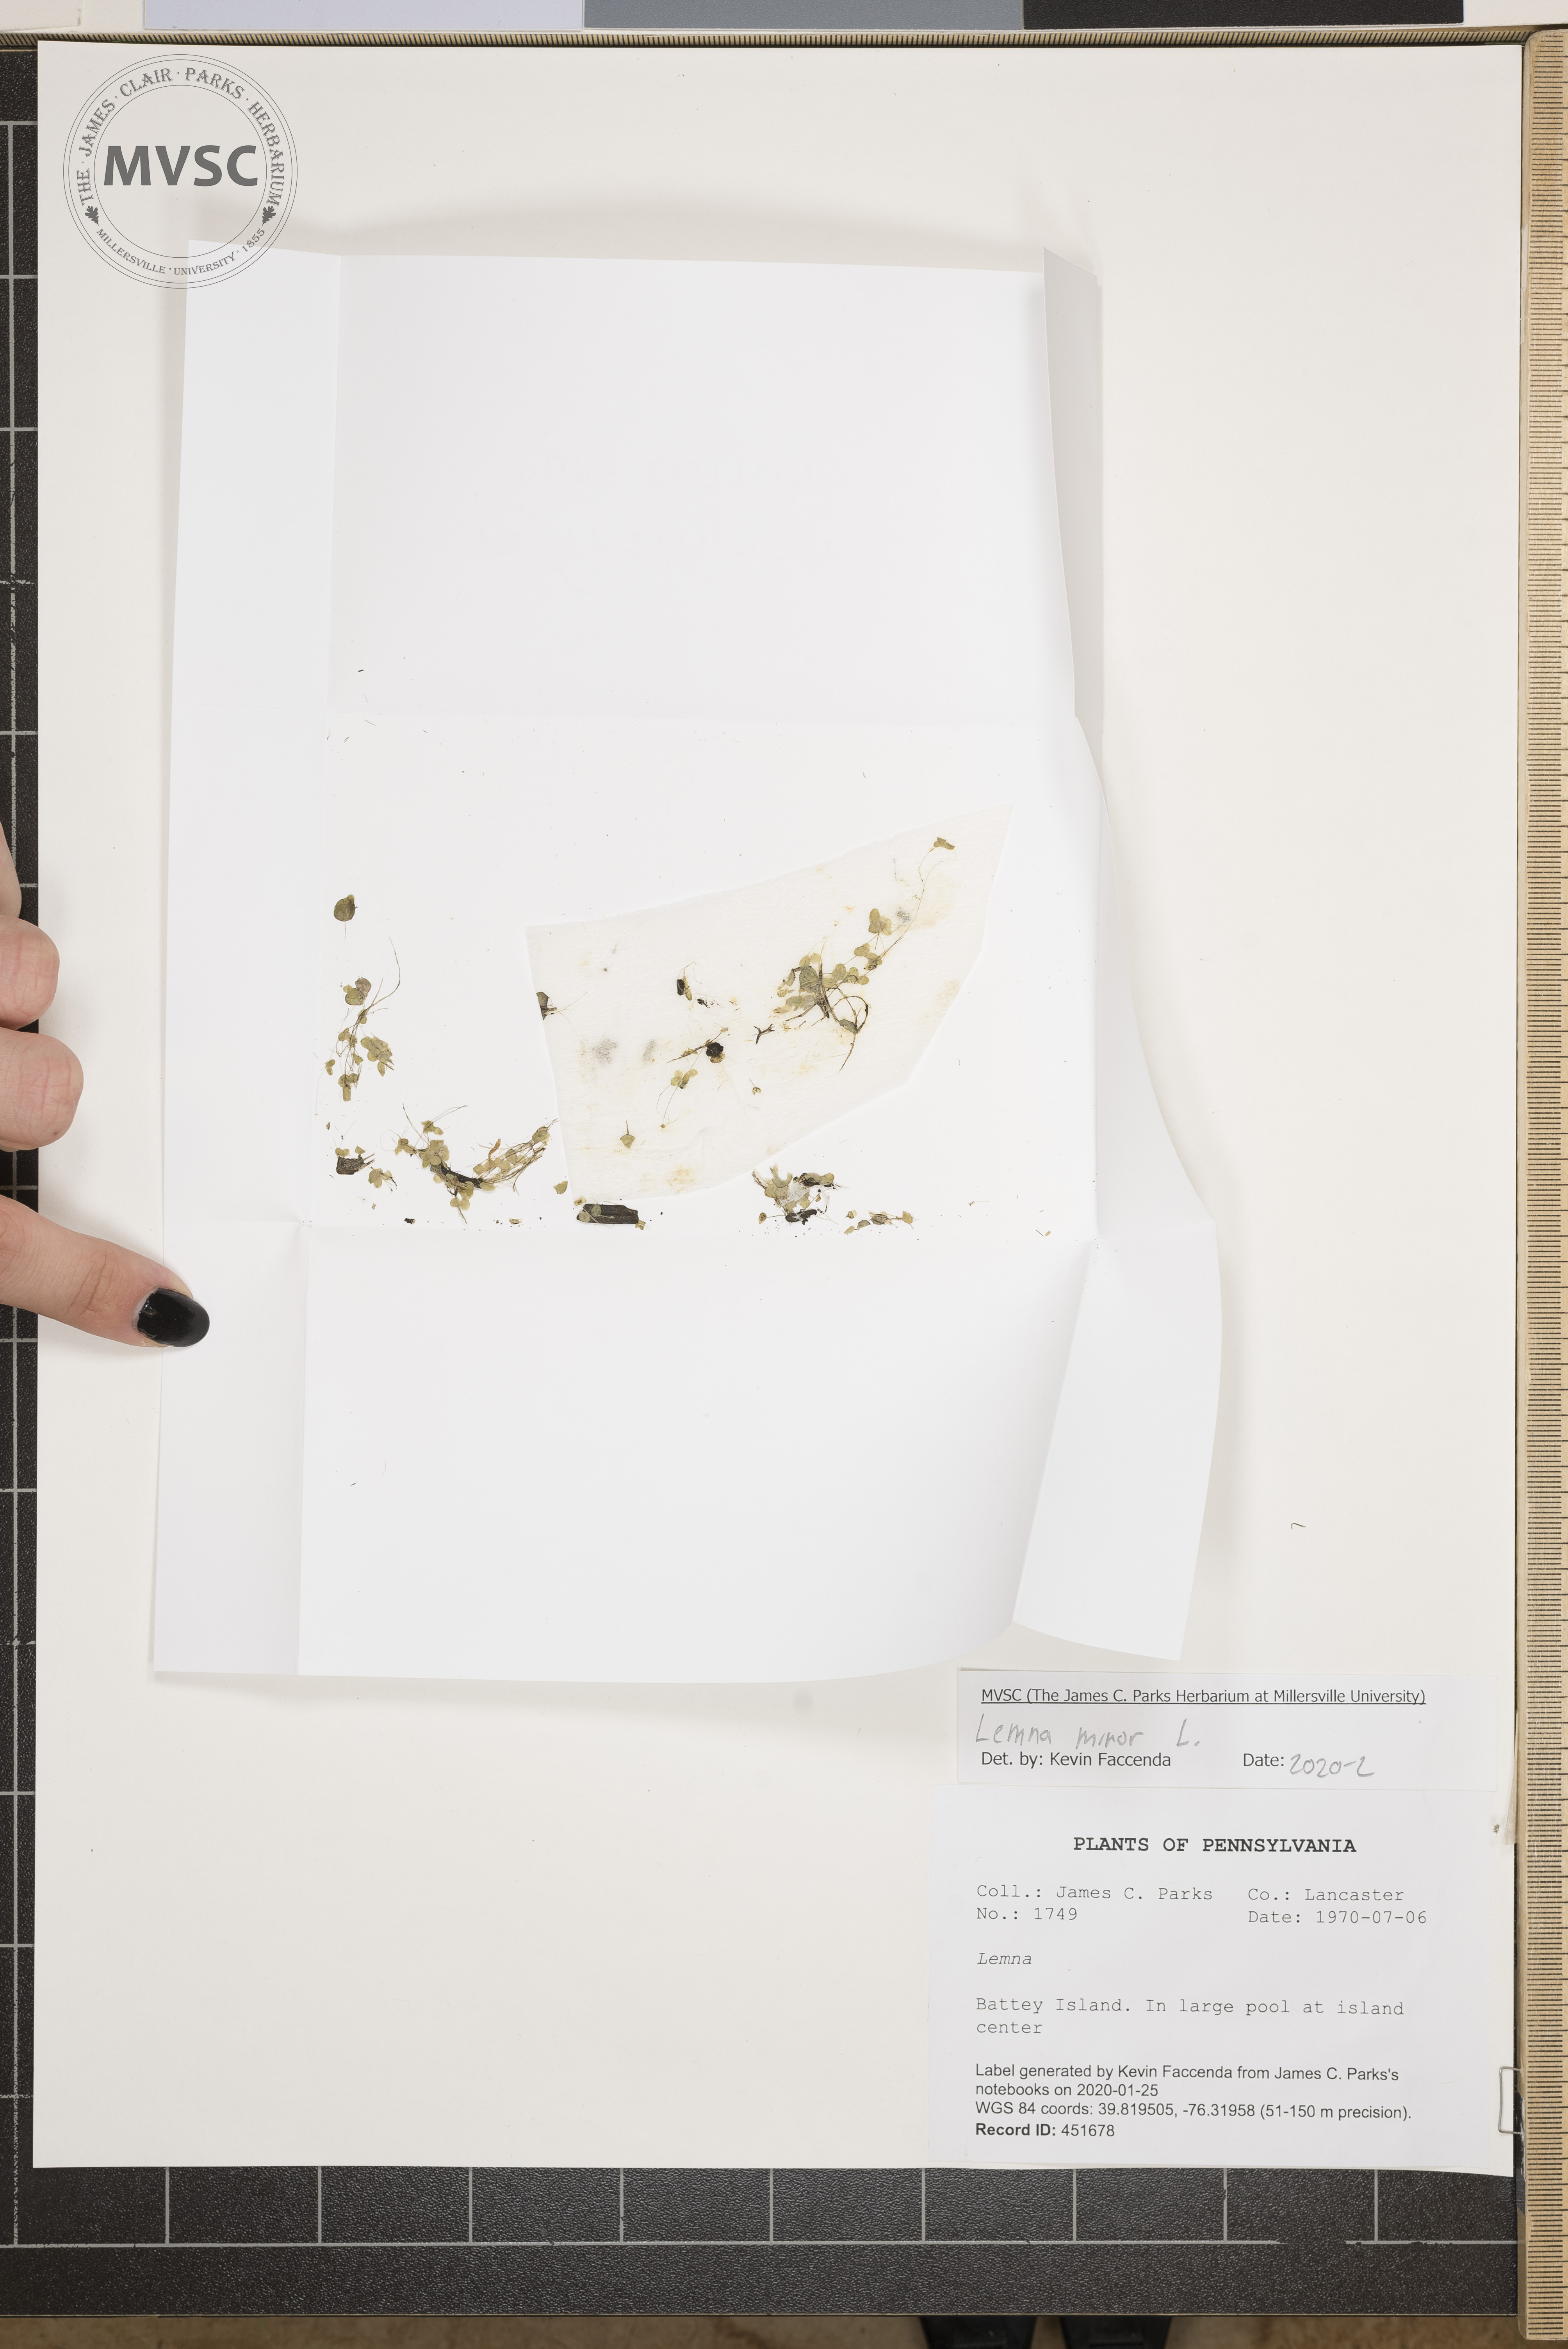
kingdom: Plantae
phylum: Tracheophyta
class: Liliopsida
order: Alismatales
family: Araceae
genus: Spirodela
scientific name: Spirodela polyrhiza
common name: Great duckweed
